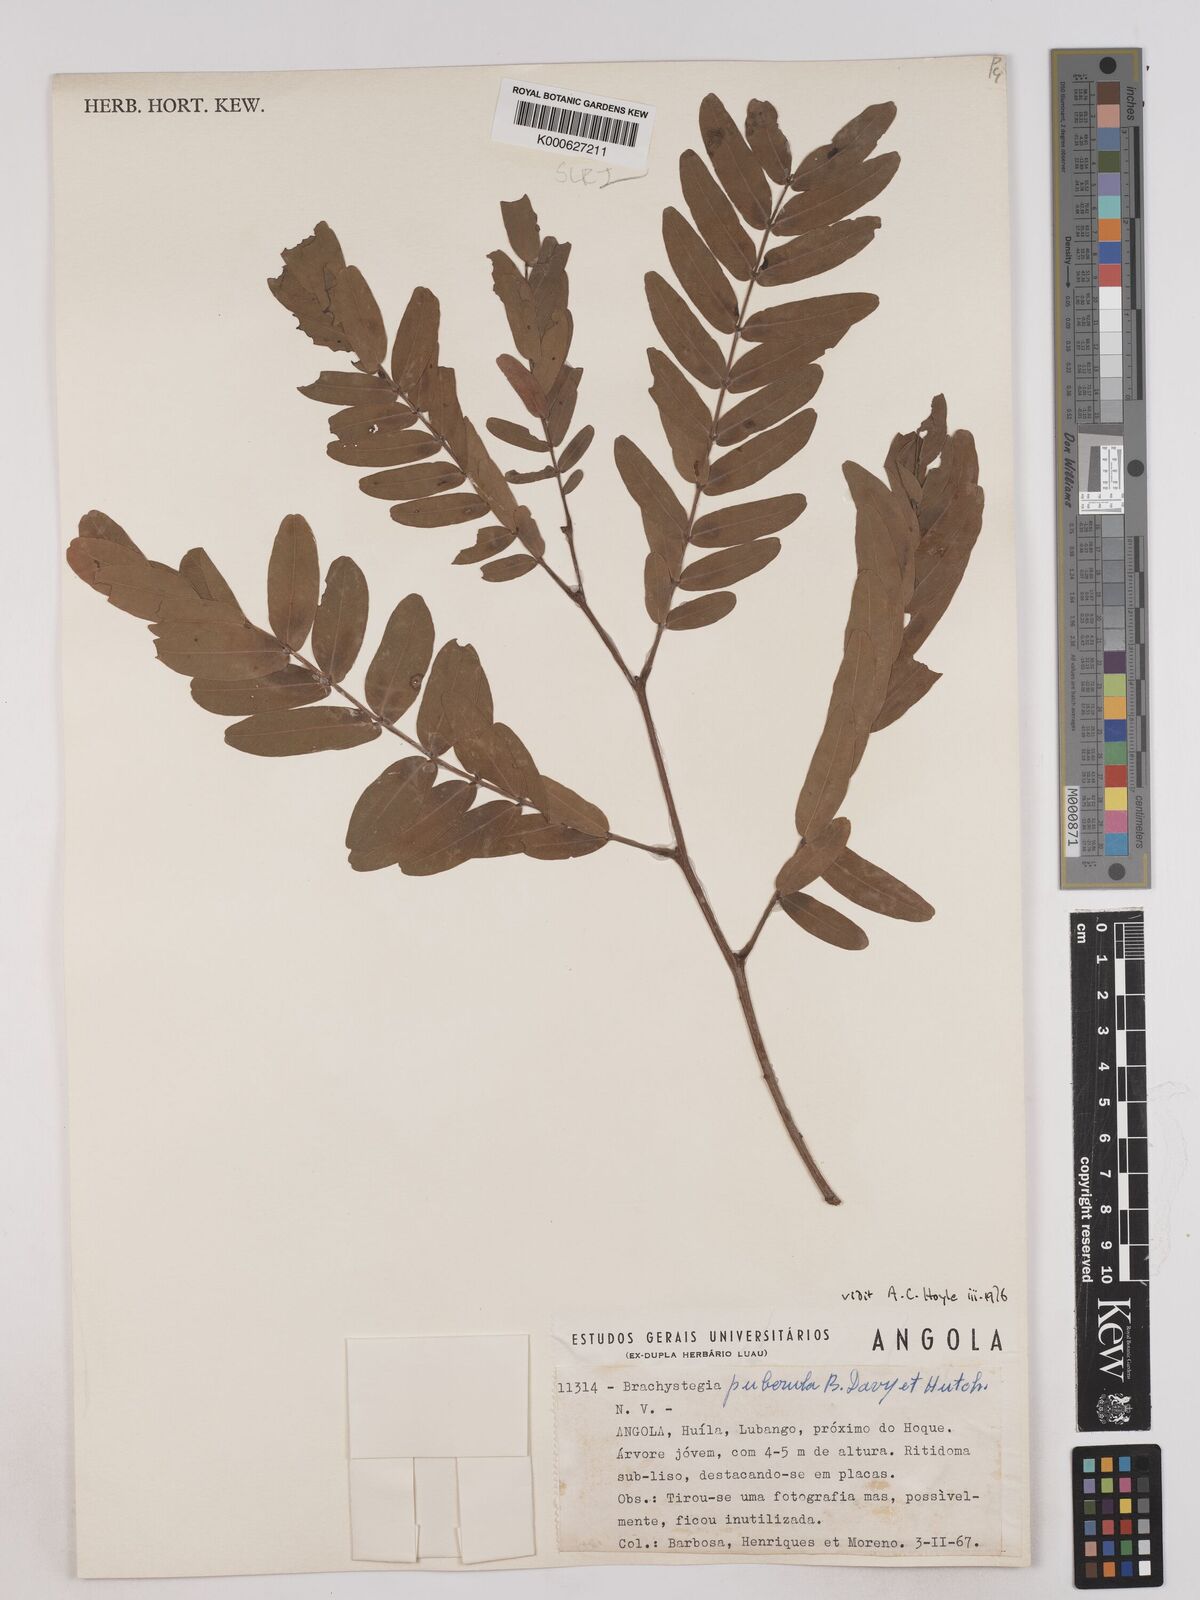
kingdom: Plantae
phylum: Tracheophyta
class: Magnoliopsida
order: Fabales
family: Fabaceae
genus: Brachystegia
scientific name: Brachystegia puberula
